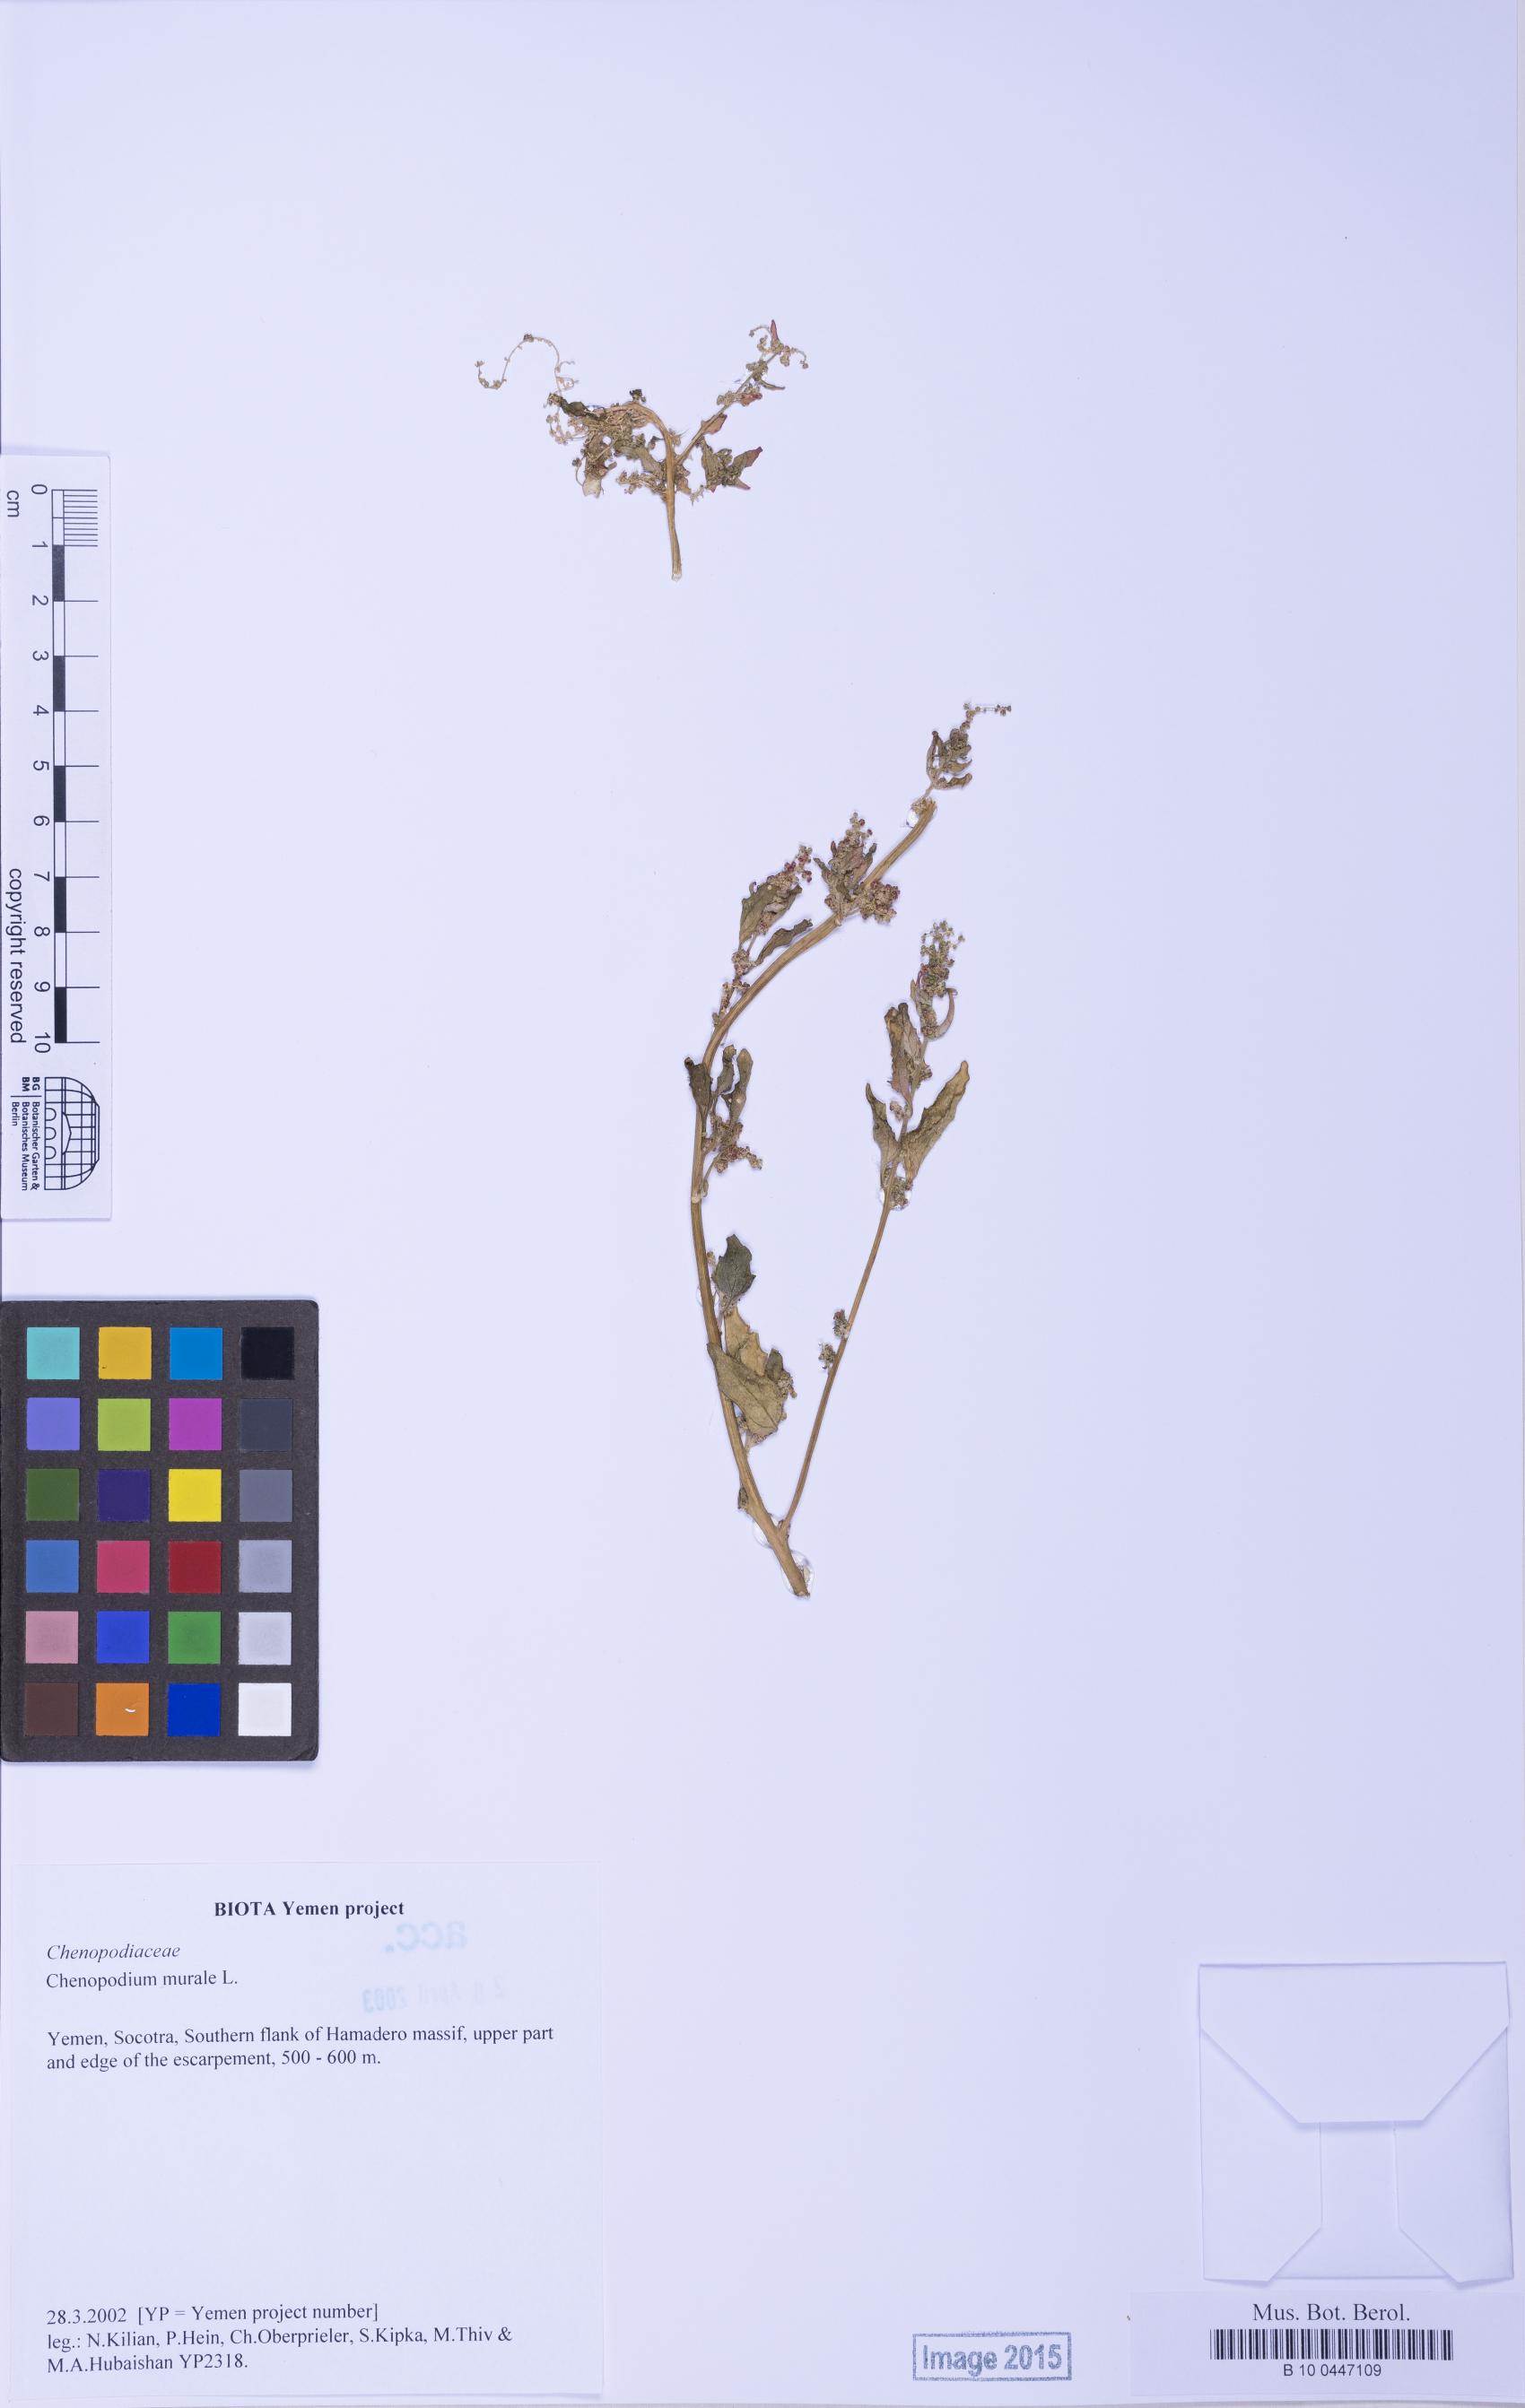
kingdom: Plantae
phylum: Tracheophyta
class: Magnoliopsida
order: Caryophyllales
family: Amaranthaceae
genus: Chenopodiastrum
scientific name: Chenopodiastrum murale
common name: Sowbane
